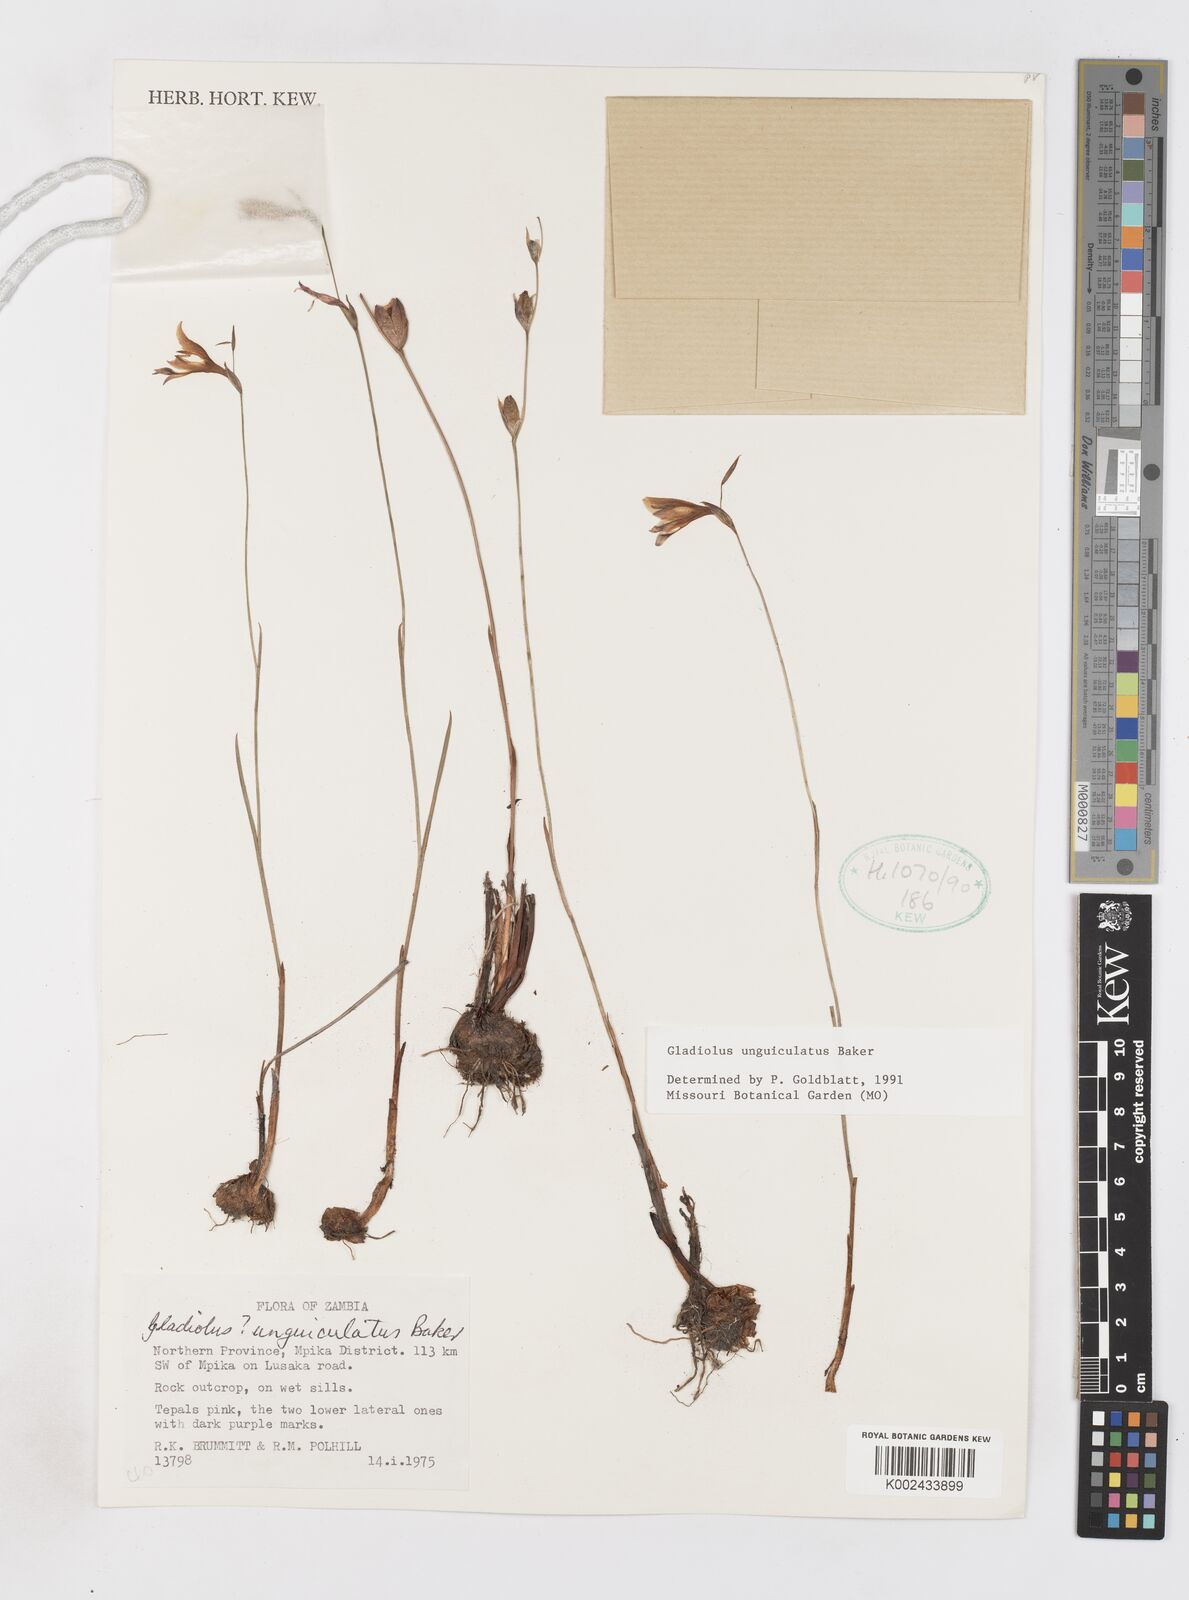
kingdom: Plantae
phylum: Tracheophyta
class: Liliopsida
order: Asparagales
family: Iridaceae
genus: Gladiolus
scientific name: Gladiolus unguiculatus
